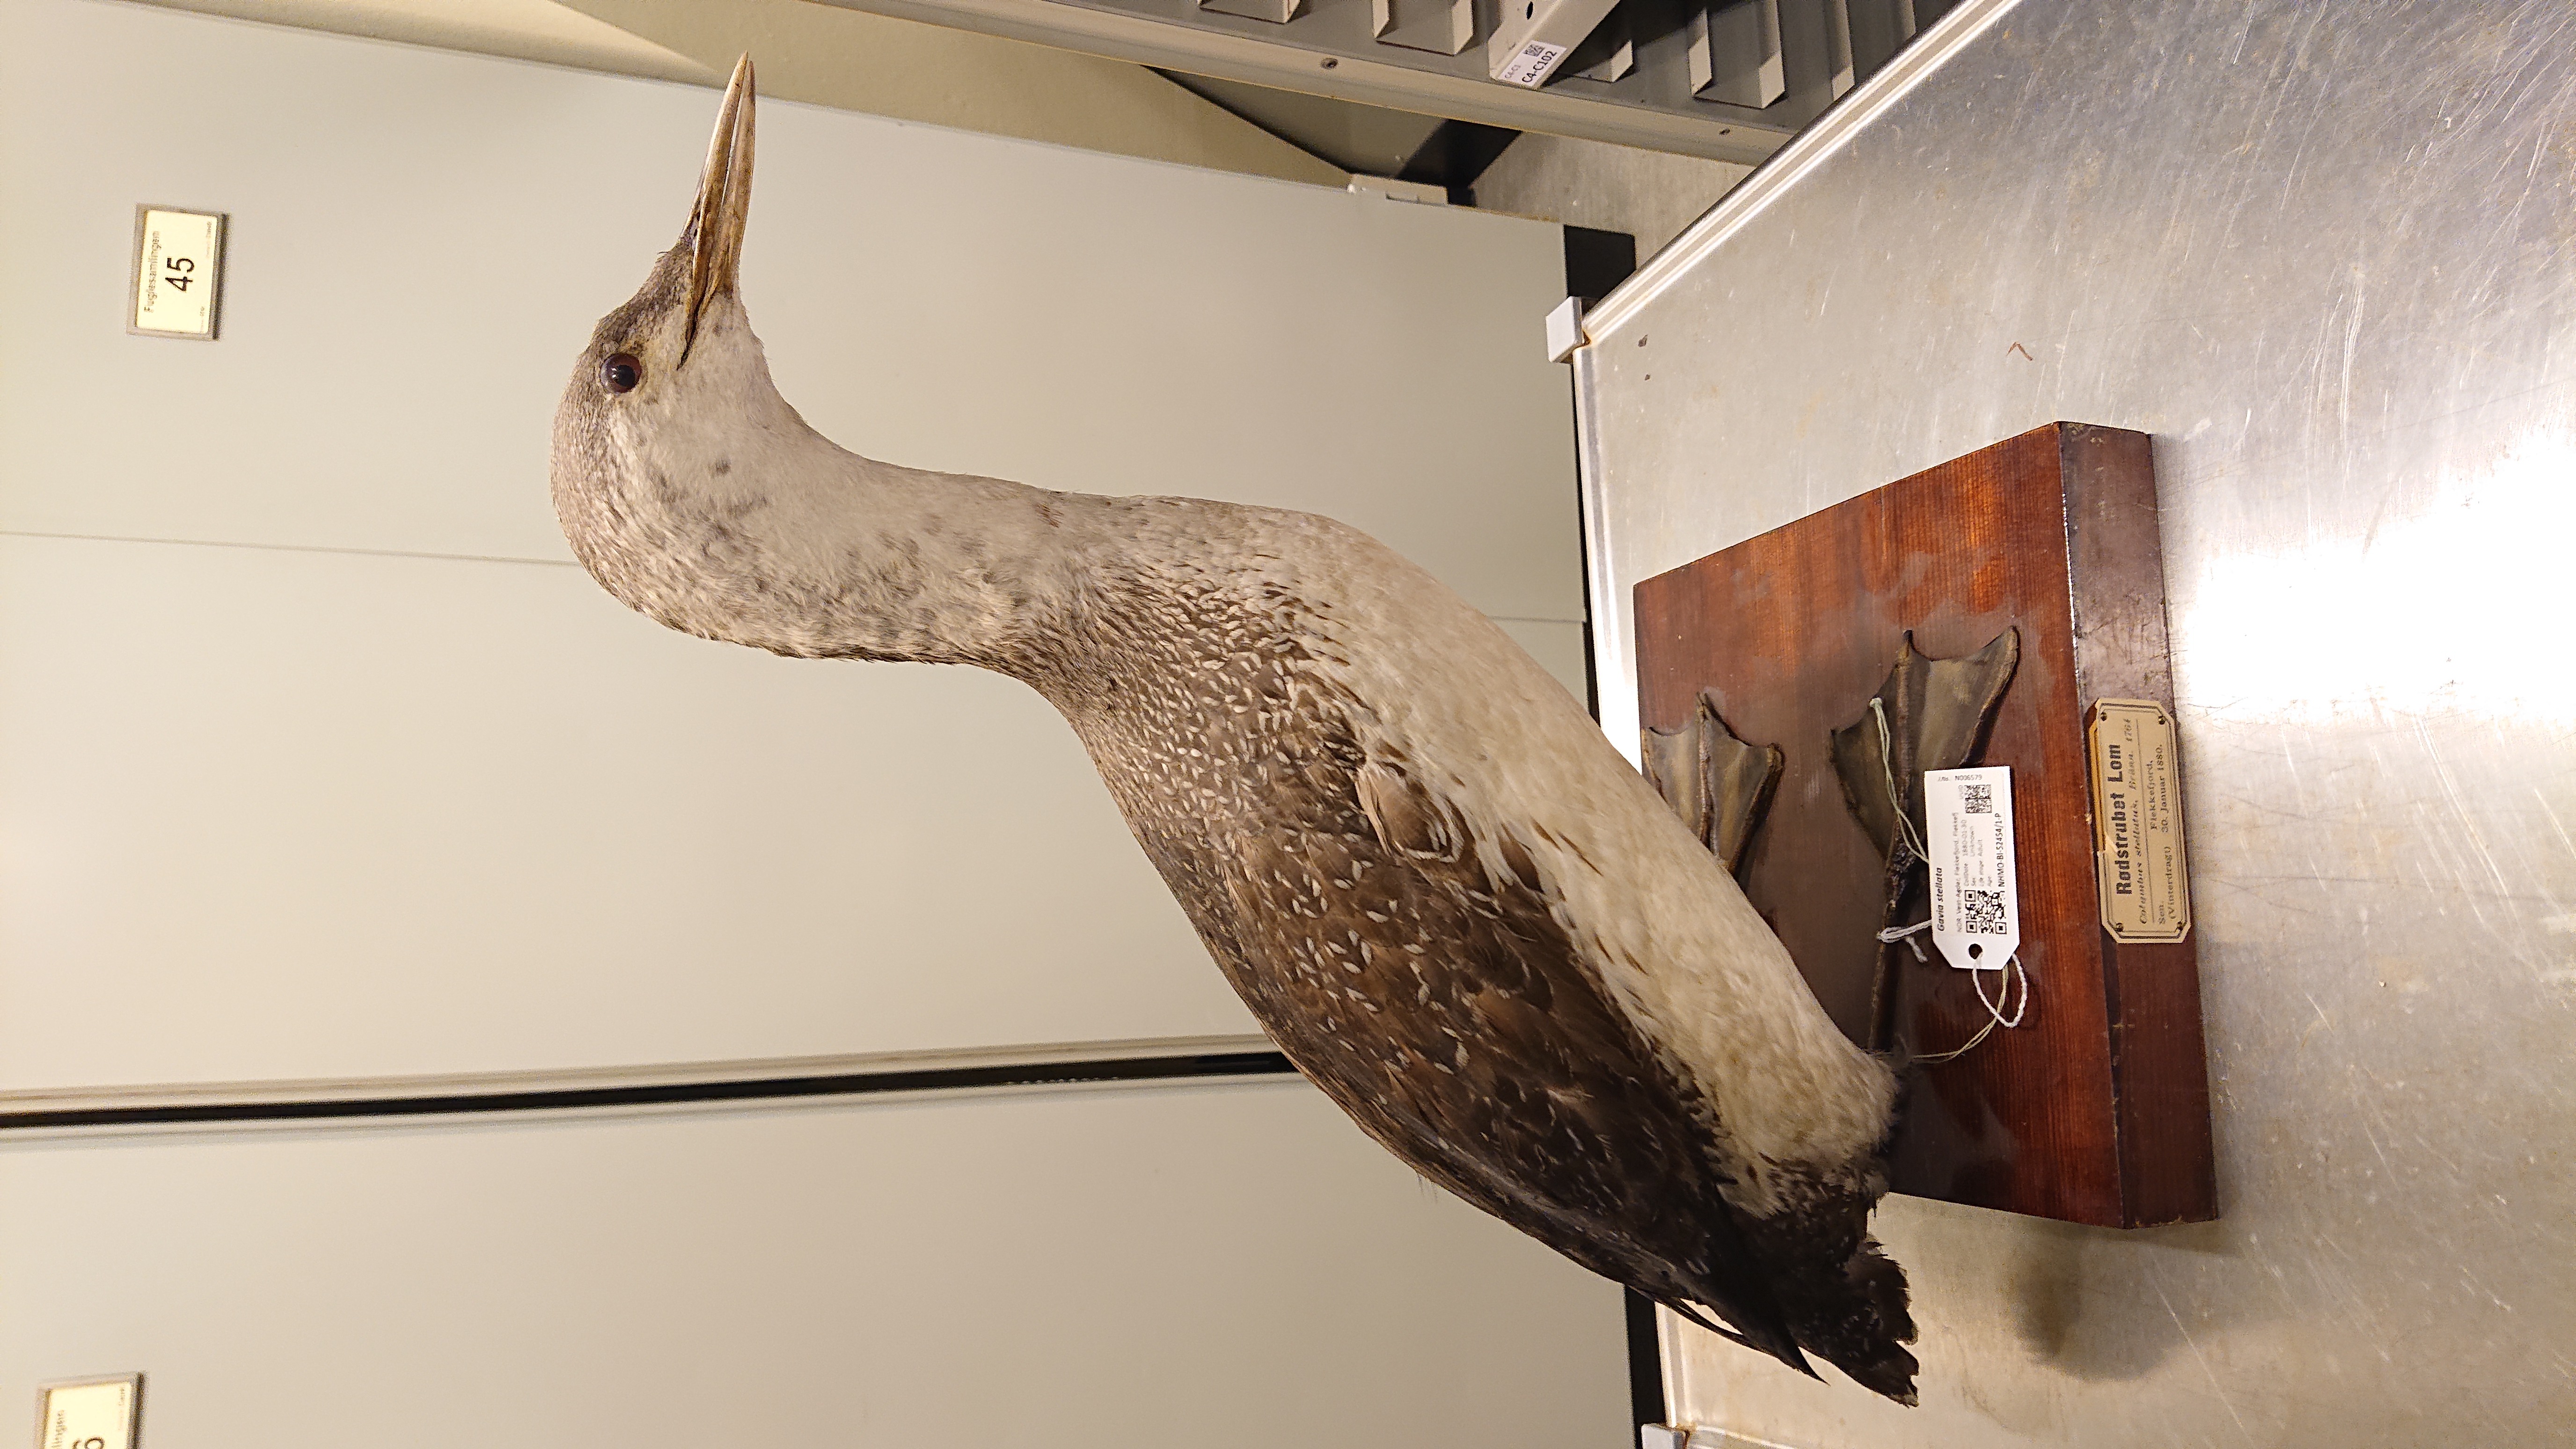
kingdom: Animalia
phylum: Chordata
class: Aves
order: Gaviiformes
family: Gaviidae
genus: Gavia
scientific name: Gavia stellata
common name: Red-throated loon
